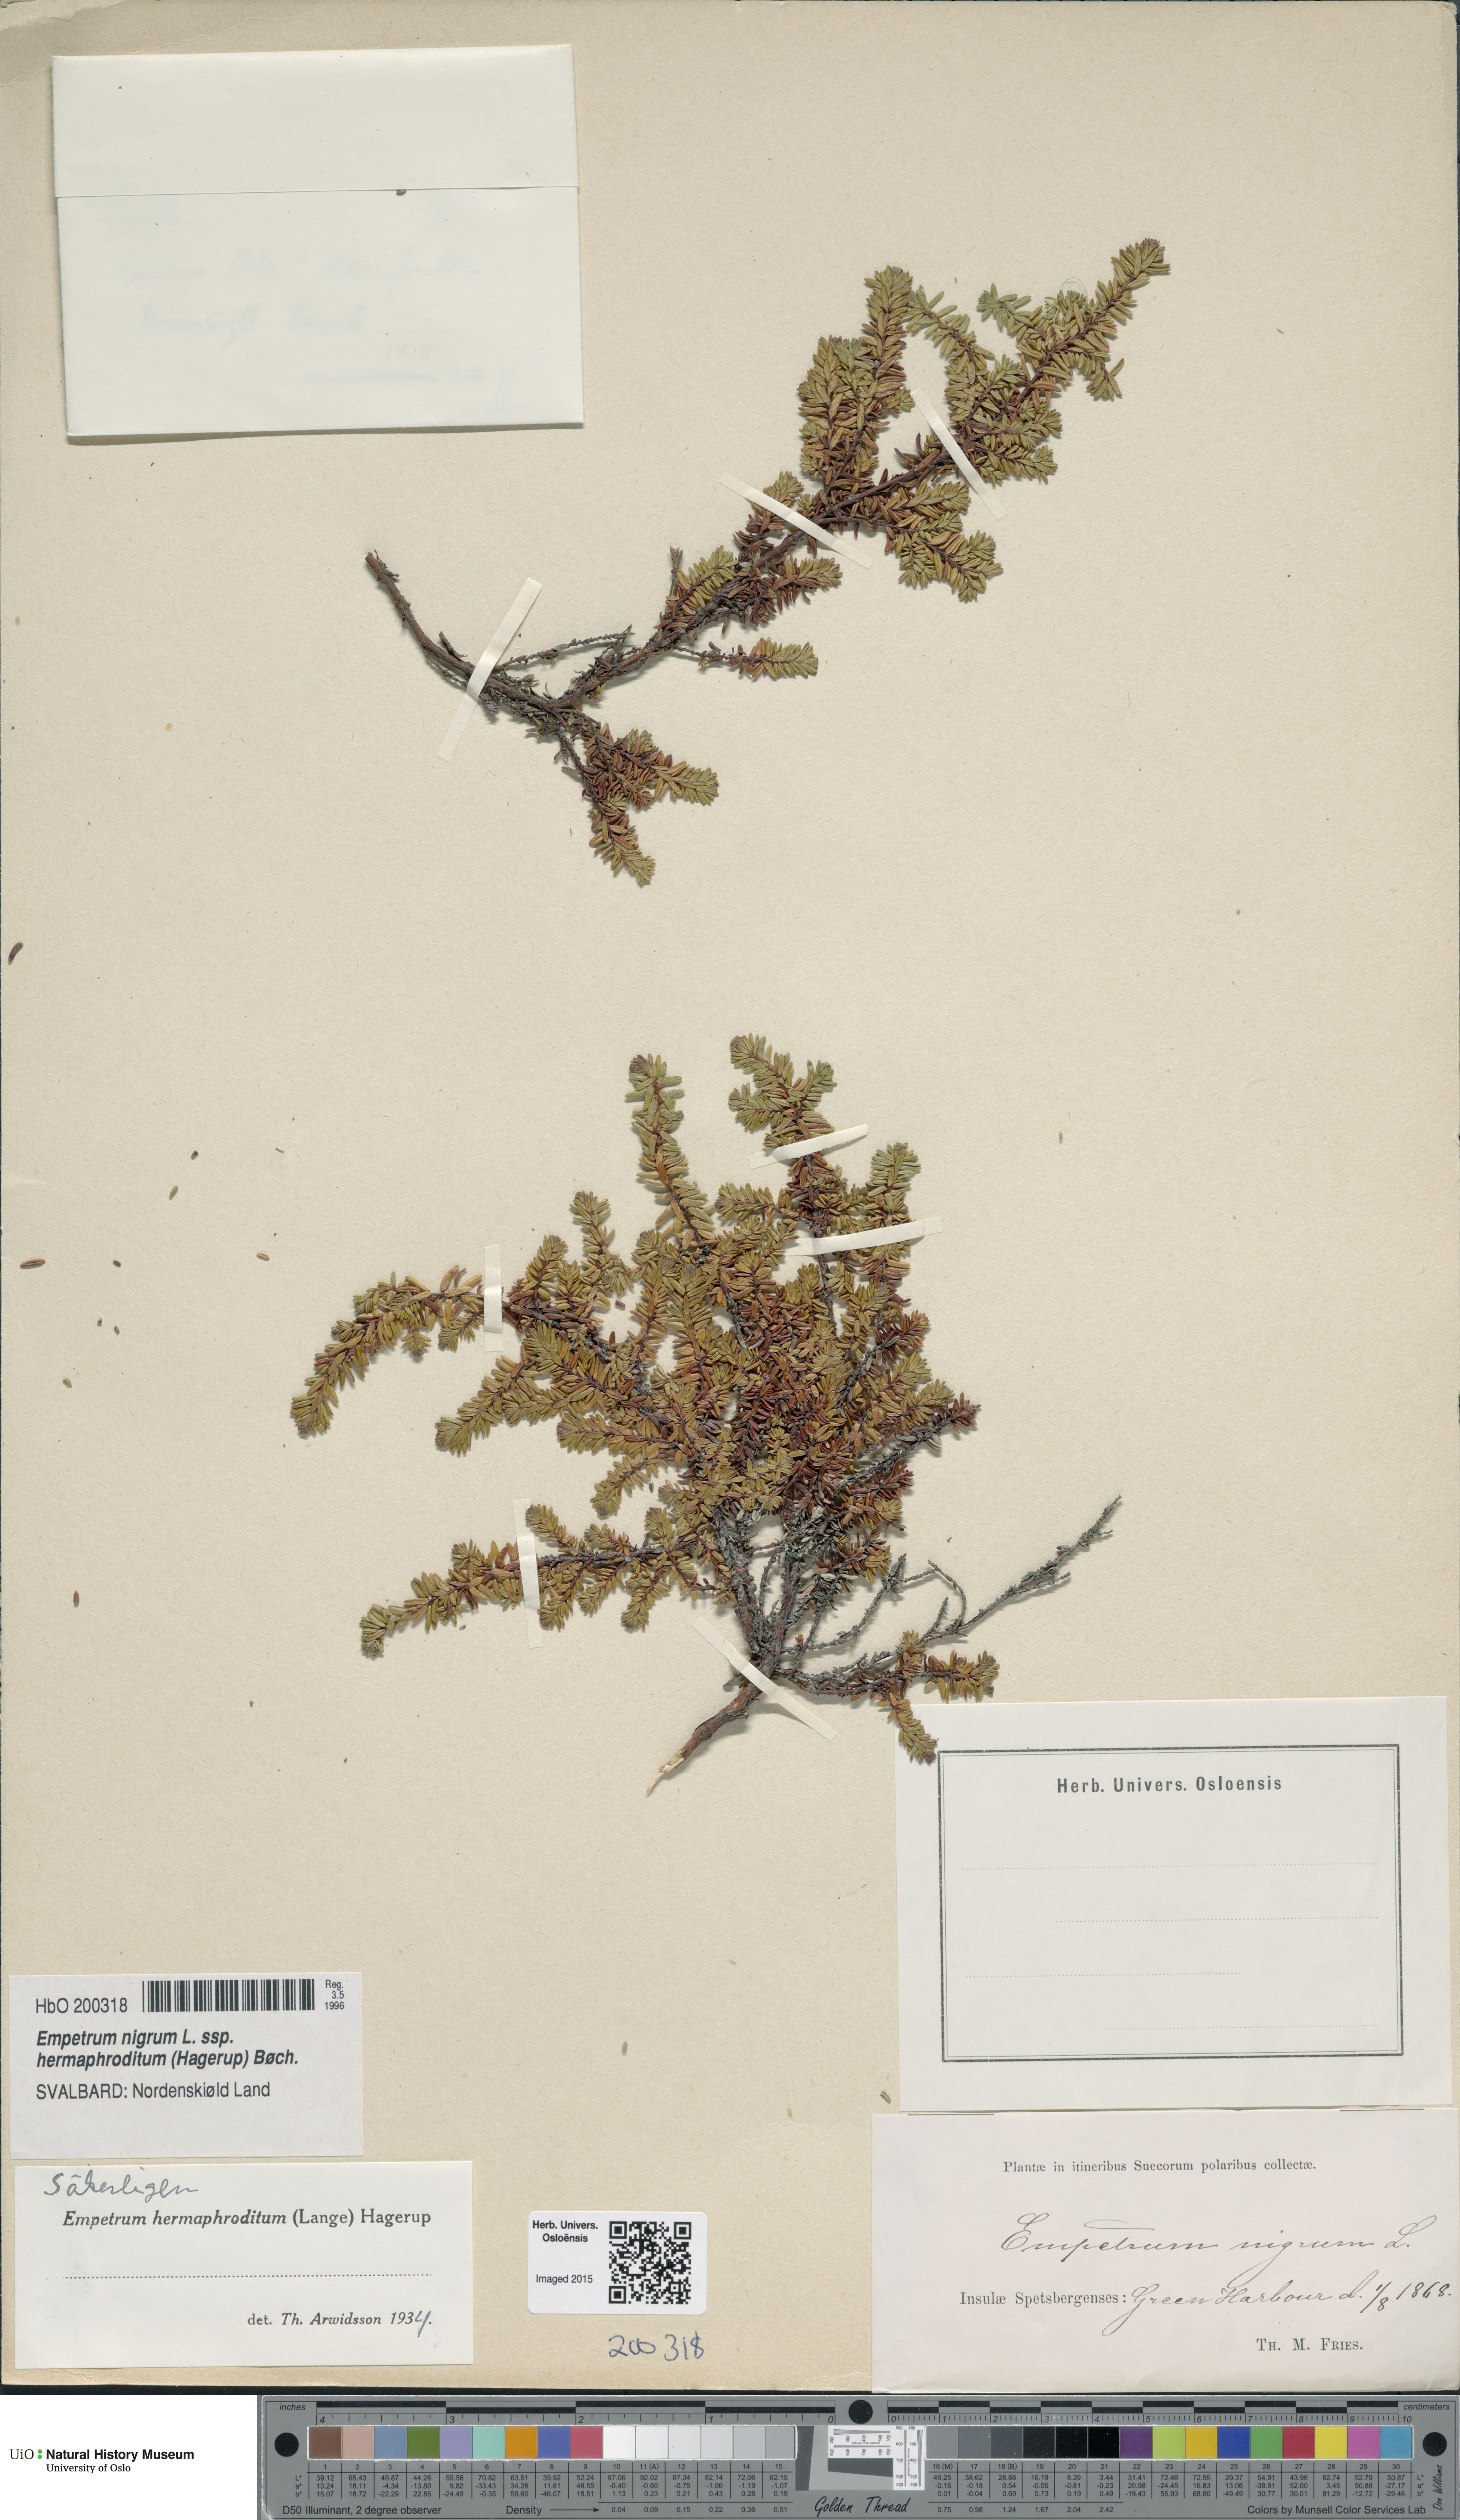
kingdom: Plantae
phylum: Tracheophyta
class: Magnoliopsida
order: Ericales
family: Ericaceae
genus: Empetrum
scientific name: Empetrum hermaphroditum
